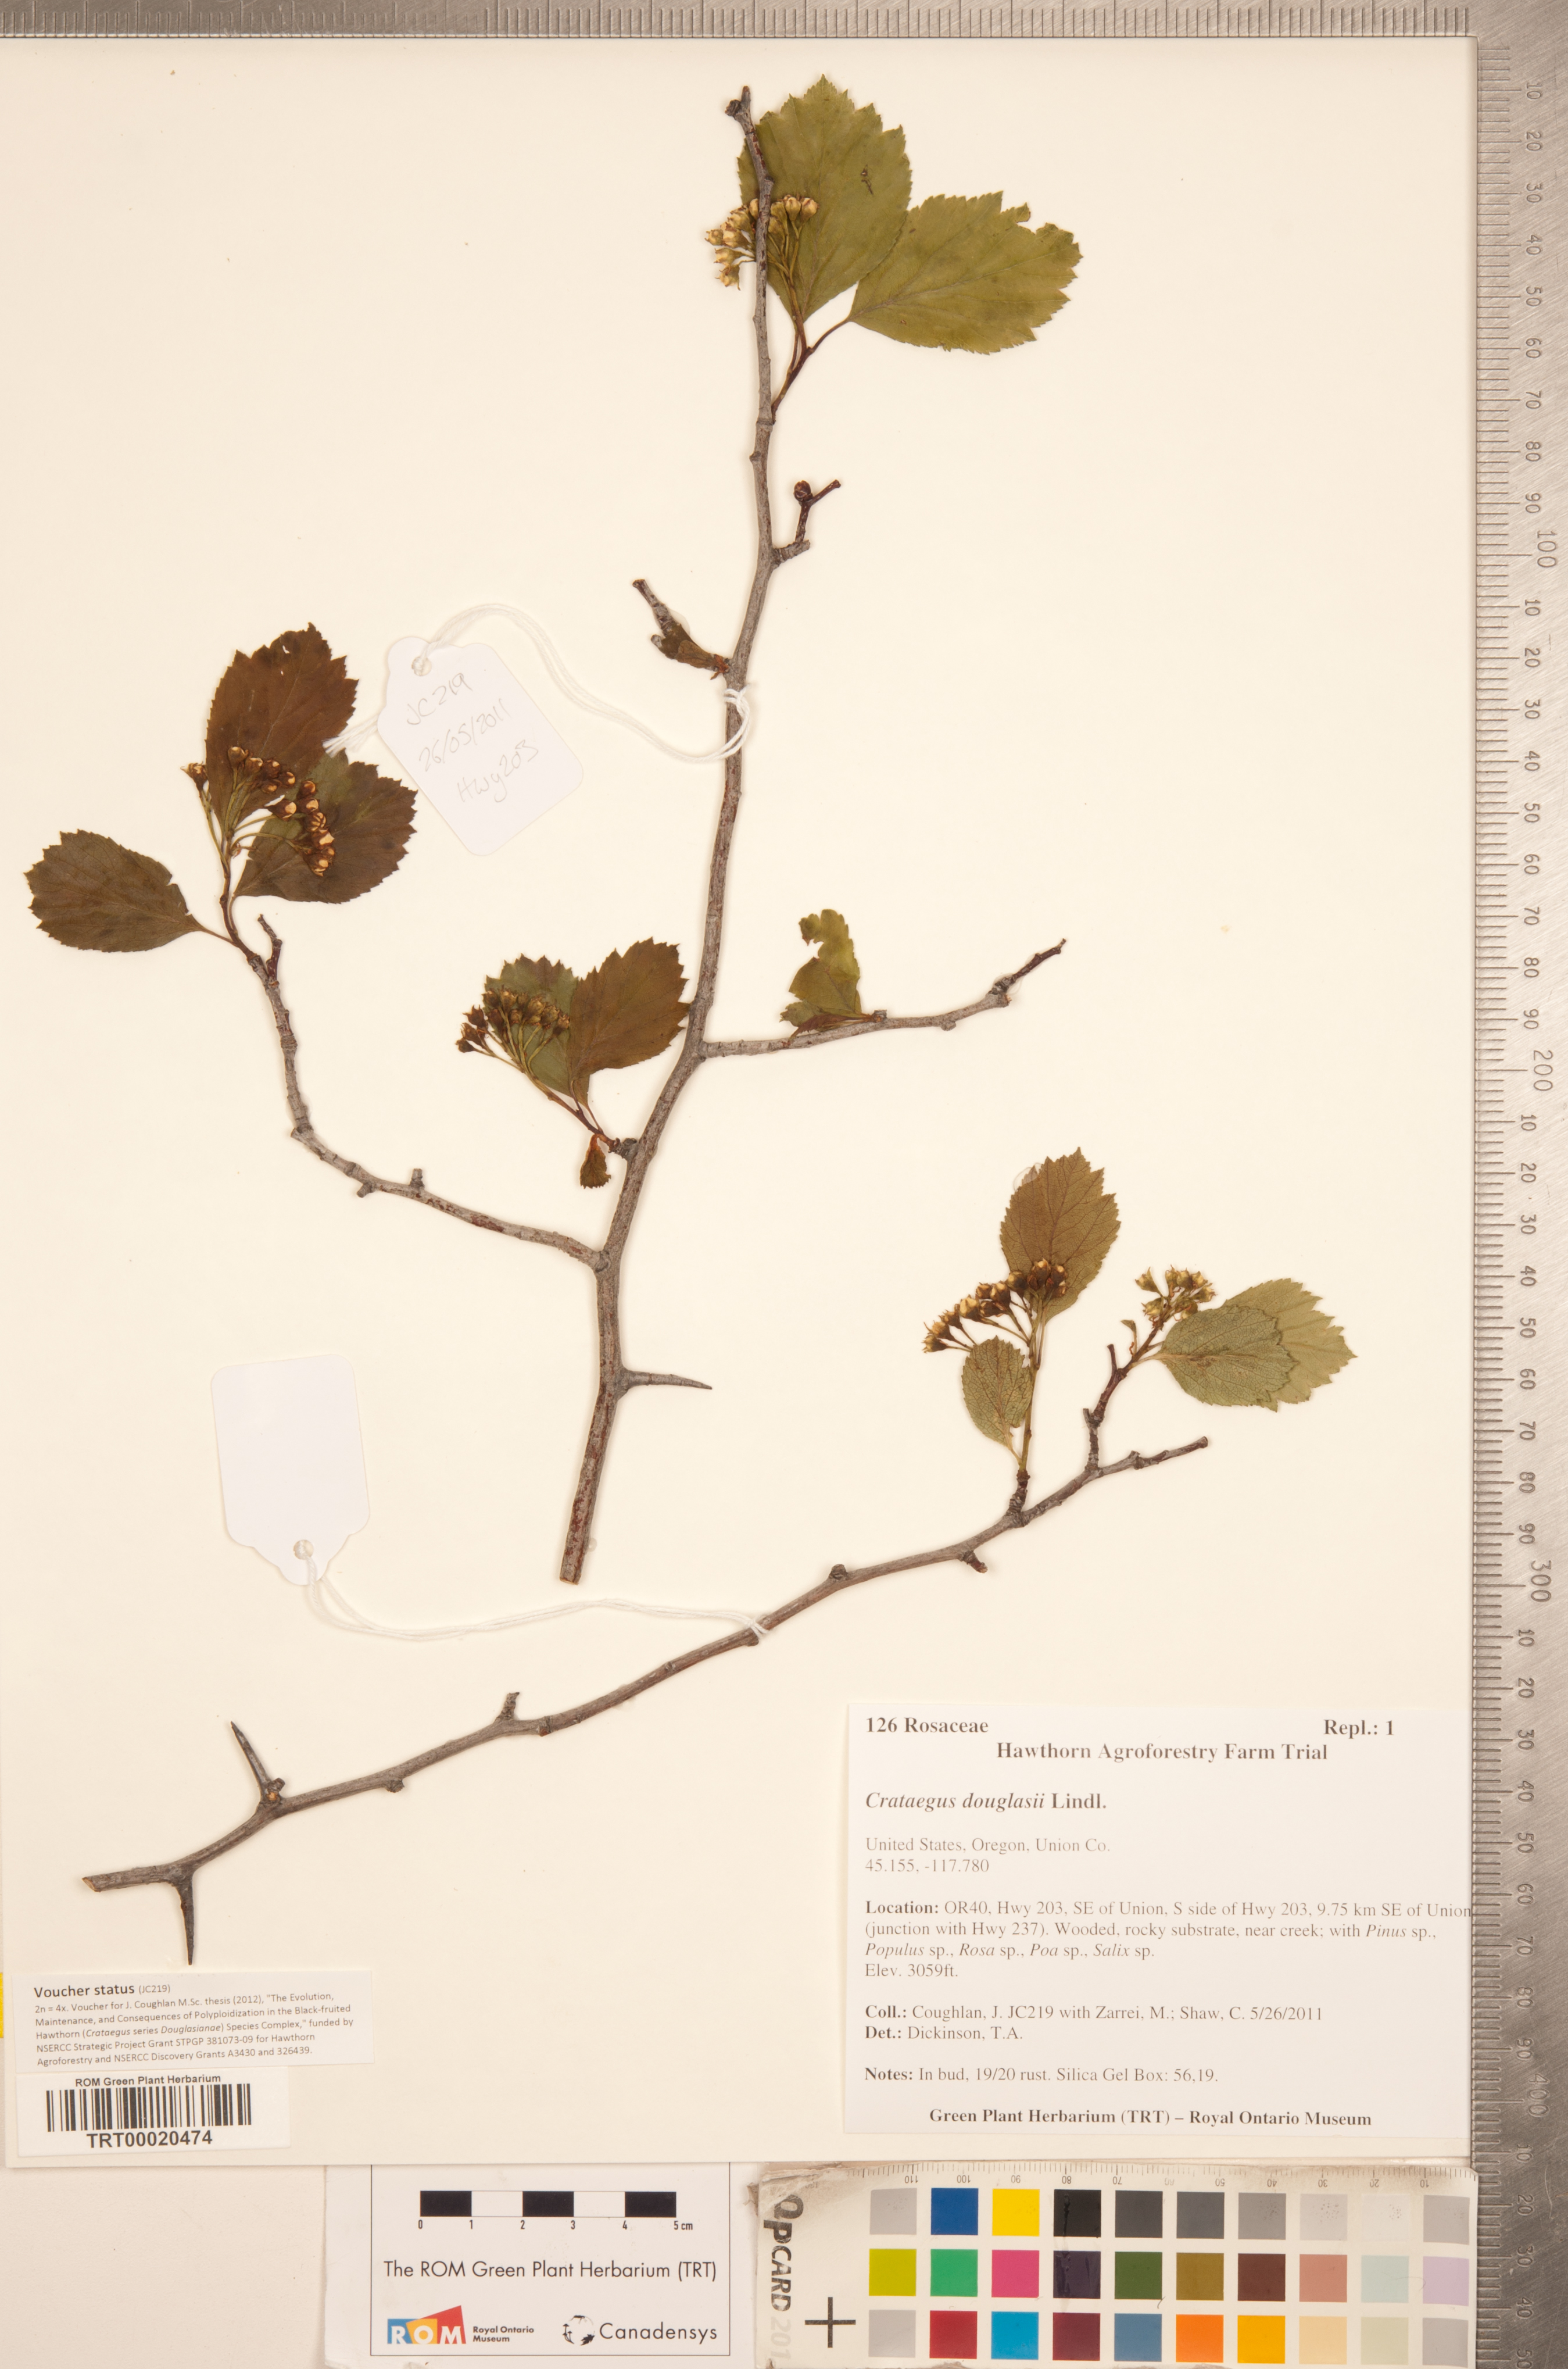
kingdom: Plantae
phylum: Tracheophyta
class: Magnoliopsida
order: Rosales
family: Rosaceae
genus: Crataegus
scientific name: Crataegus douglasii
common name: Black hawthorn
